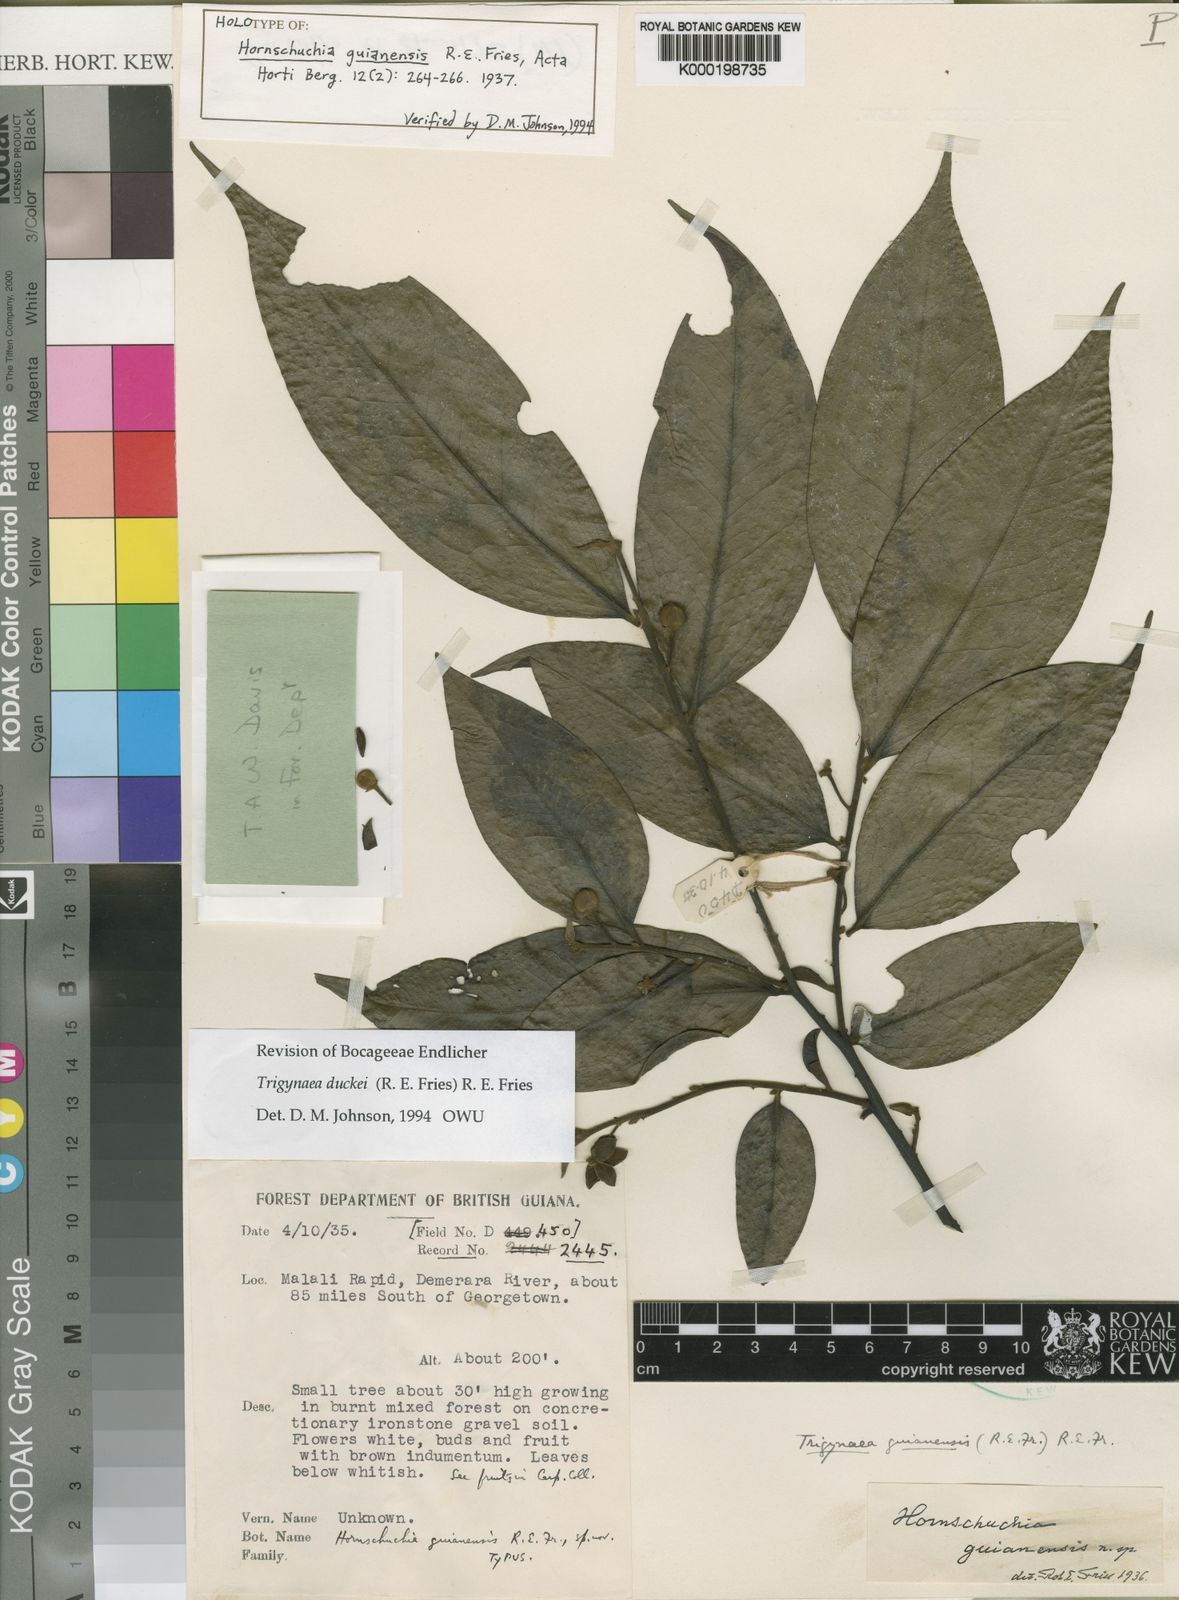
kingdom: Plantae
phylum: Tracheophyta
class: Magnoliopsida
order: Magnoliales
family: Annonaceae
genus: Trigynaea
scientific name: Trigynaea
